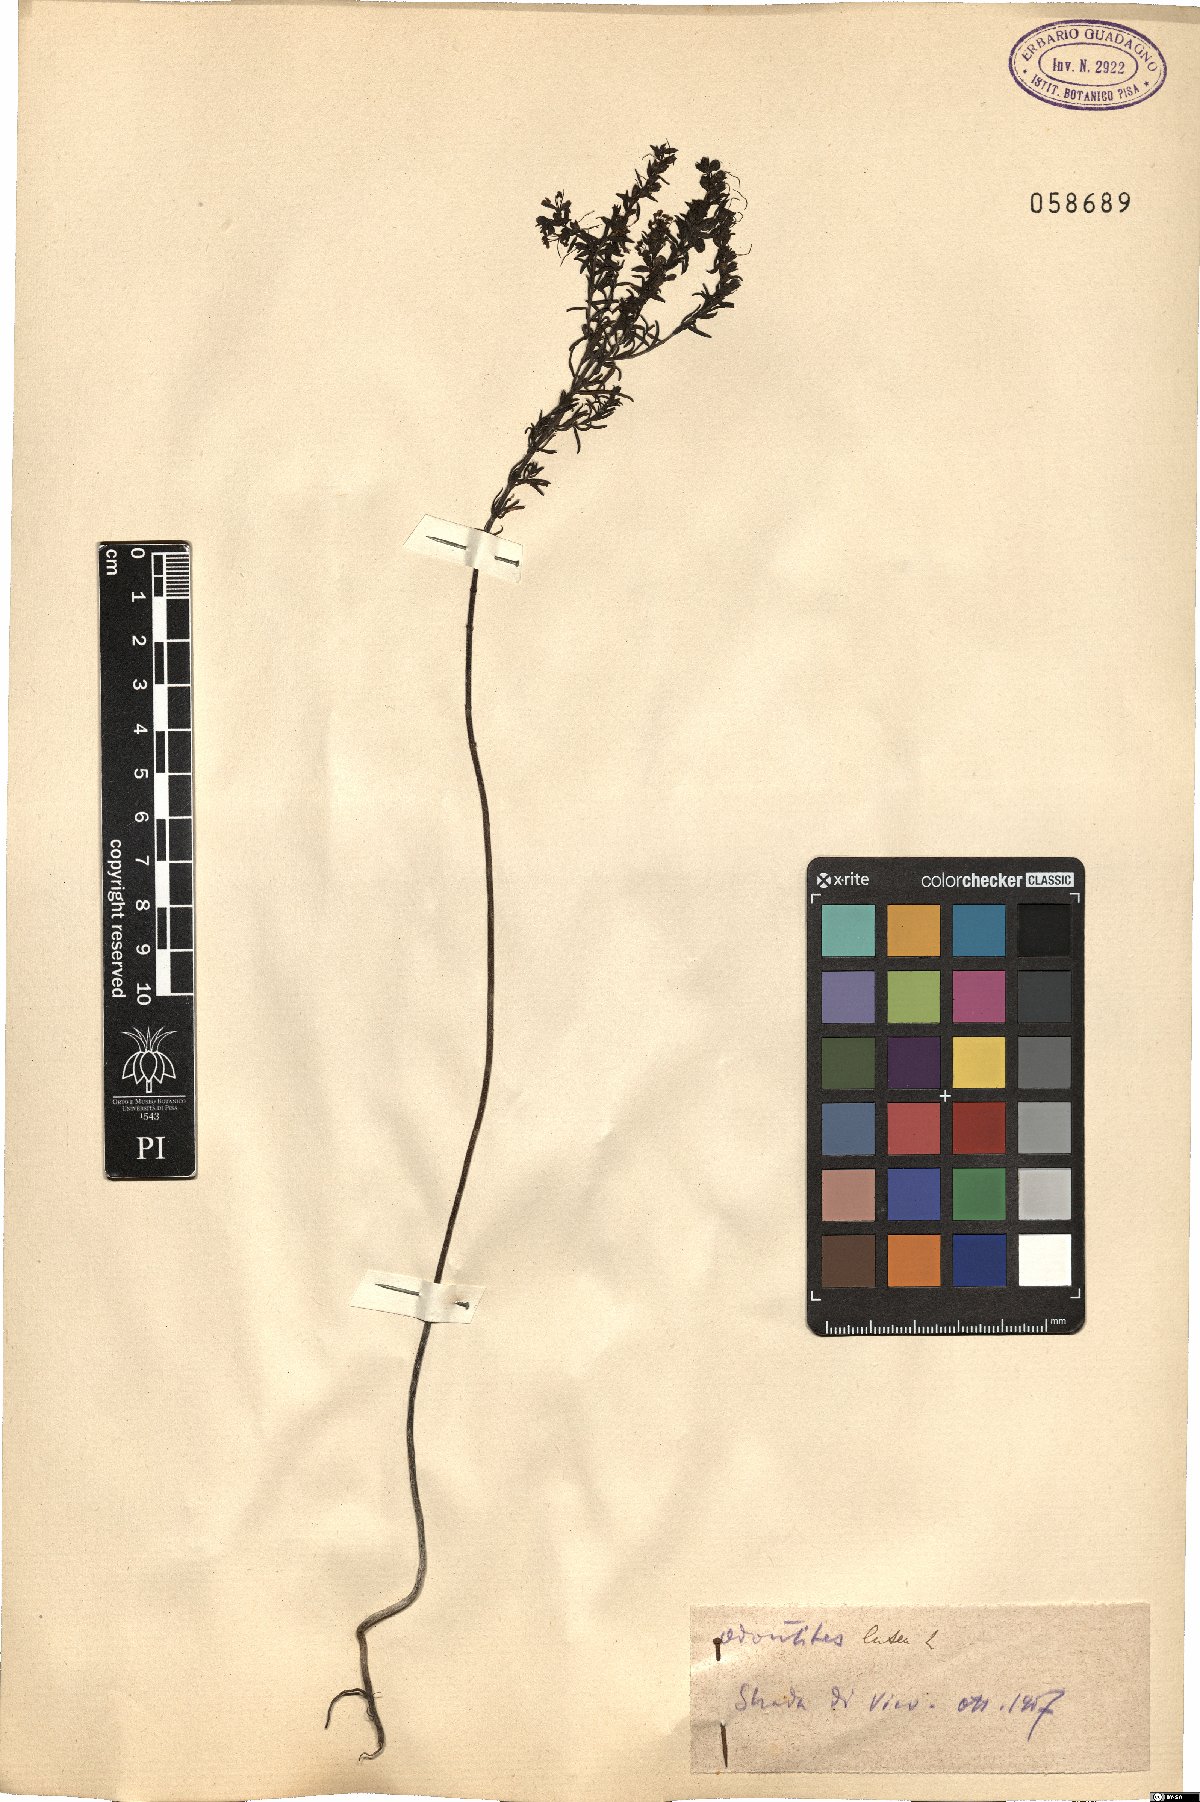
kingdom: Plantae
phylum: Tracheophyta
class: Magnoliopsida
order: Lamiales
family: Orobanchaceae
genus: Odontites
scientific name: Odontites luteus
